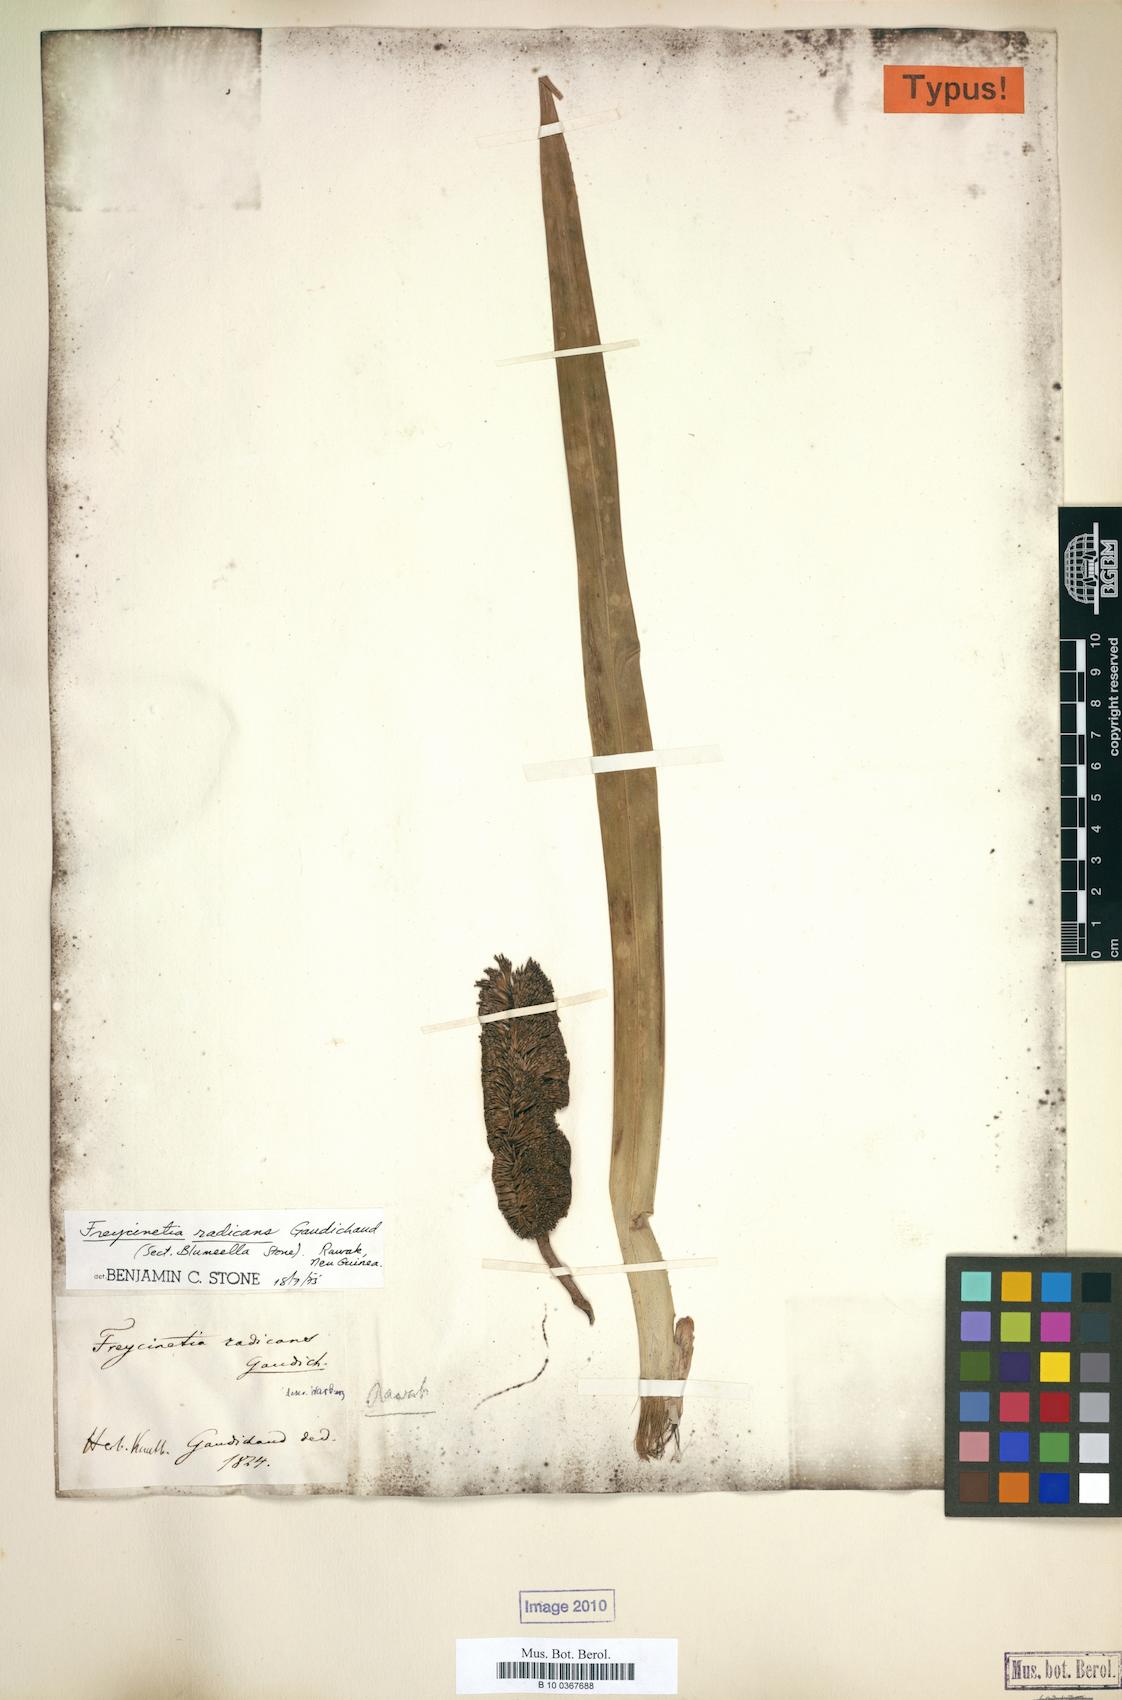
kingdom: Plantae
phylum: Tracheophyta
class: Liliopsida
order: Pandanales
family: Pandanaceae
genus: Freycinetia
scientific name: Freycinetia radicans
